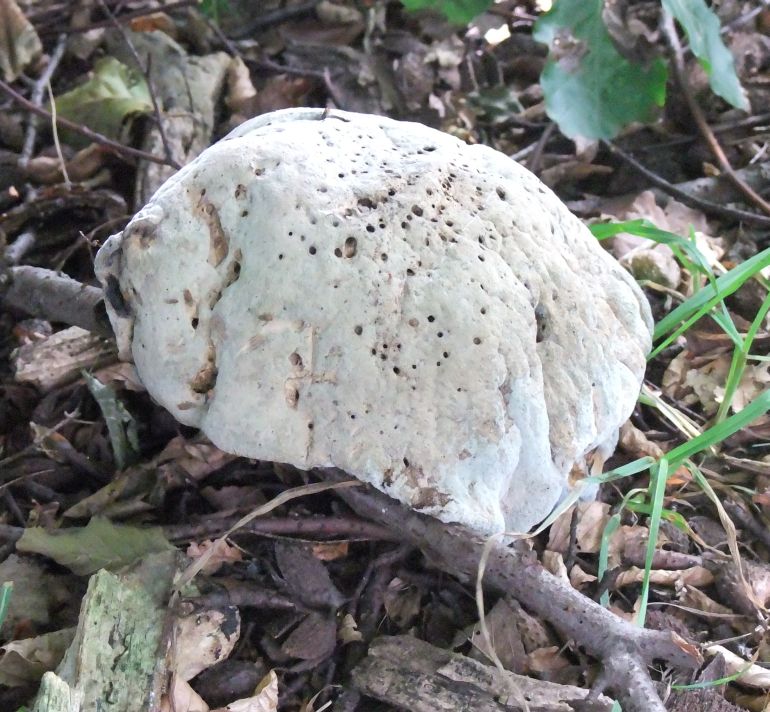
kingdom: Fungi
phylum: Basidiomycota
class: Agaricomycetes
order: Boletales
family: Boletaceae
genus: Caloboletus
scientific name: Caloboletus radicans
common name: rod-rørhat
